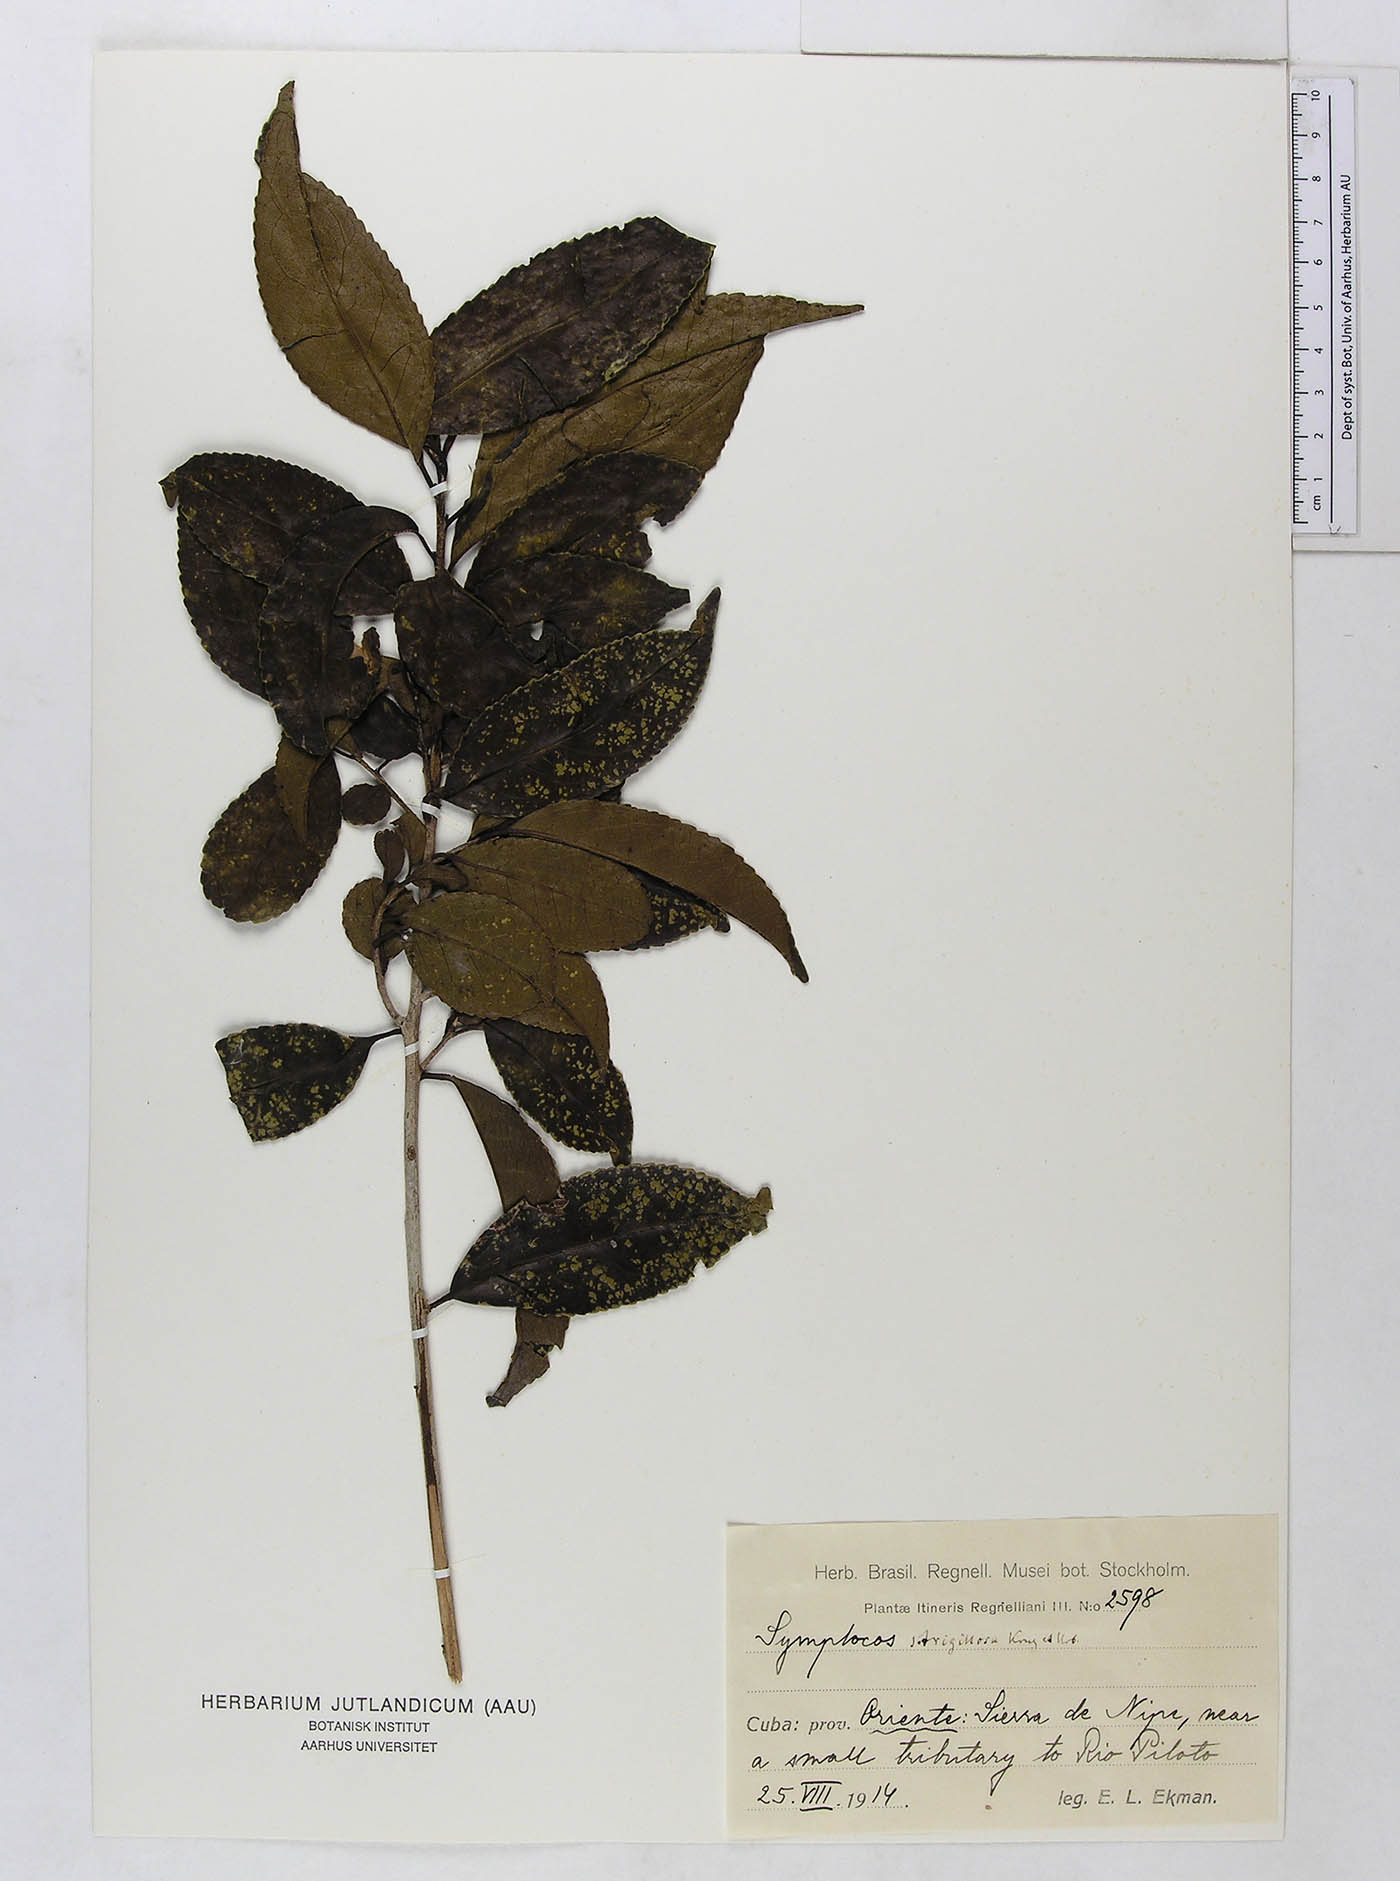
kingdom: Plantae
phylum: Tracheophyta
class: Magnoliopsida
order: Ericales
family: Symplocaceae
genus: Symplocos
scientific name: Symplocos jurgensenii
